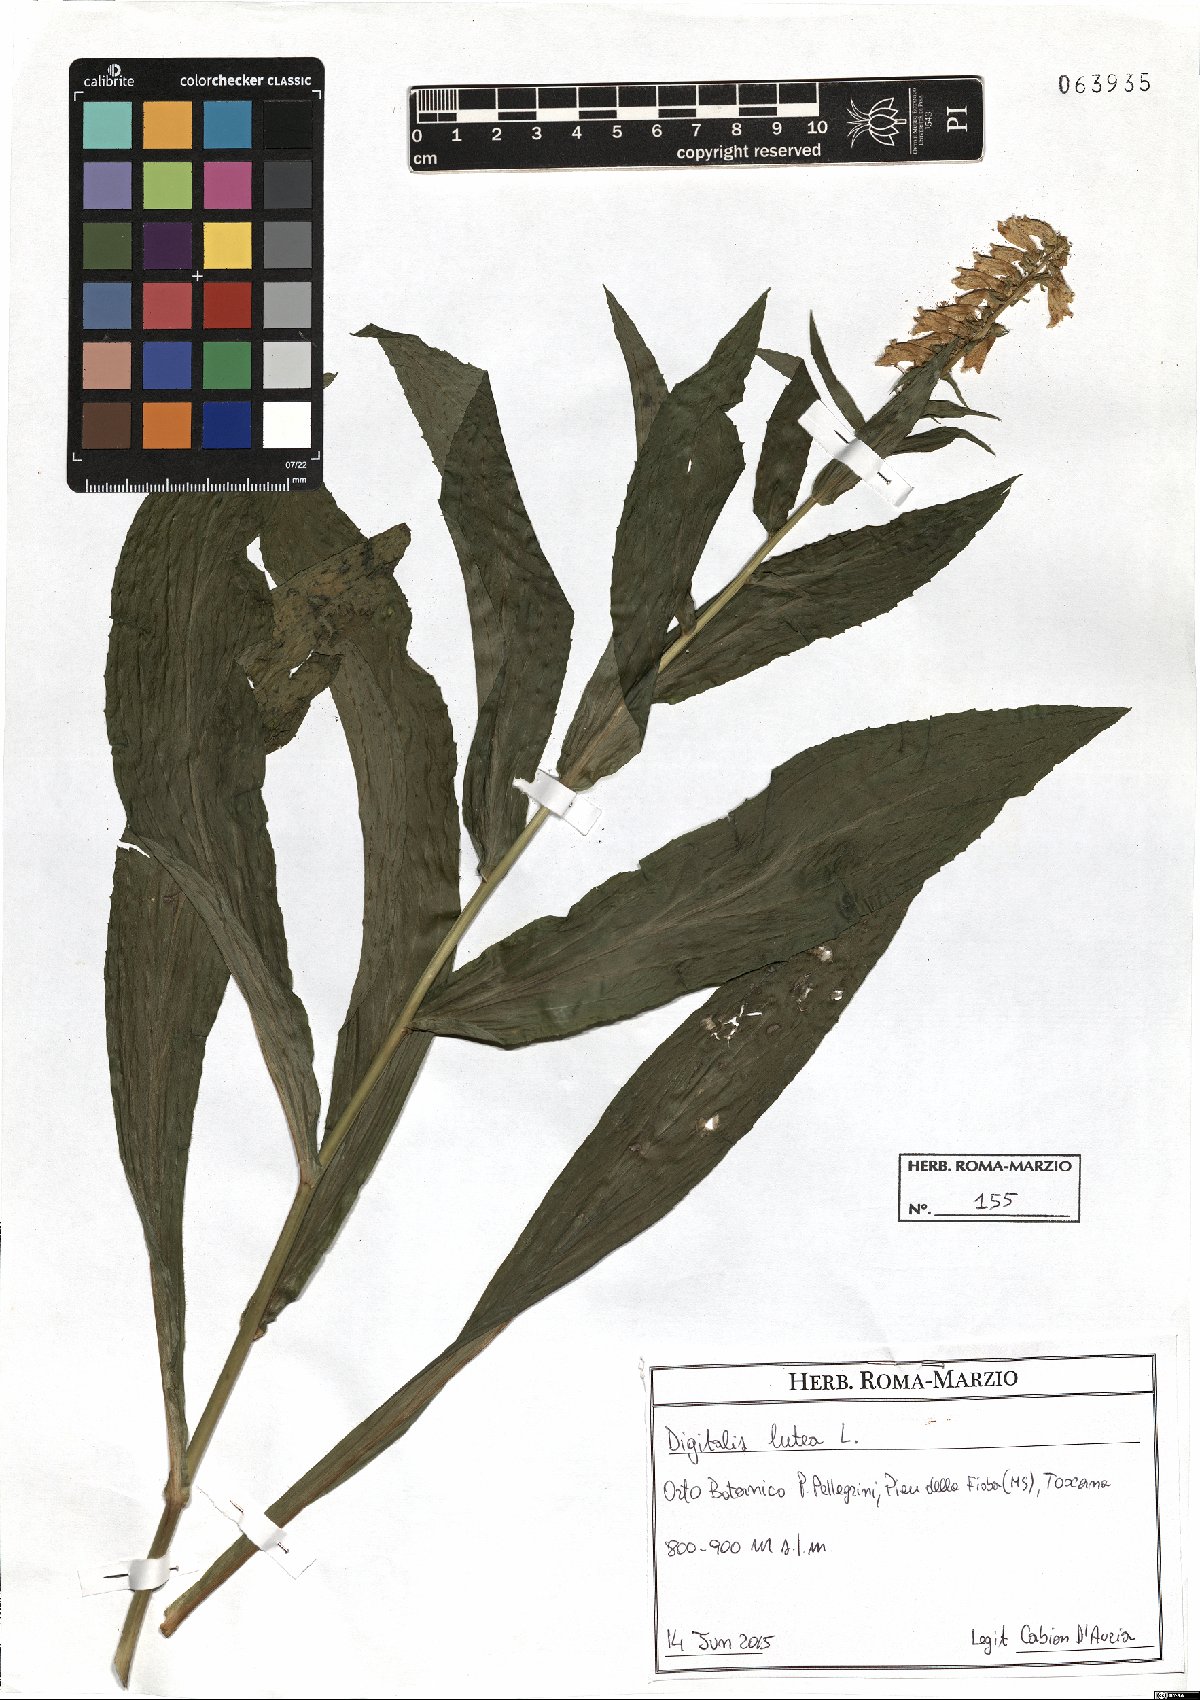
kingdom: Plantae
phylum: Tracheophyta
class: Magnoliopsida
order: Lamiales
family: Plantaginaceae
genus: Digitalis
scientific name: Digitalis lutea
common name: Straw foxglove
